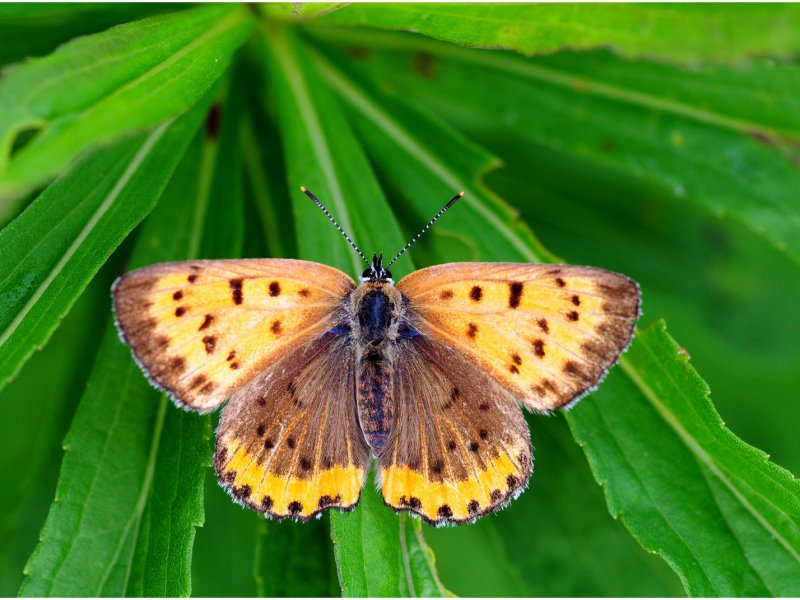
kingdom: Animalia
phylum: Arthropoda
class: Insecta
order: Lepidoptera
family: Sesiidae
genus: Sesia
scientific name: Sesia Lycaena hyllus
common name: Bronze Copper
